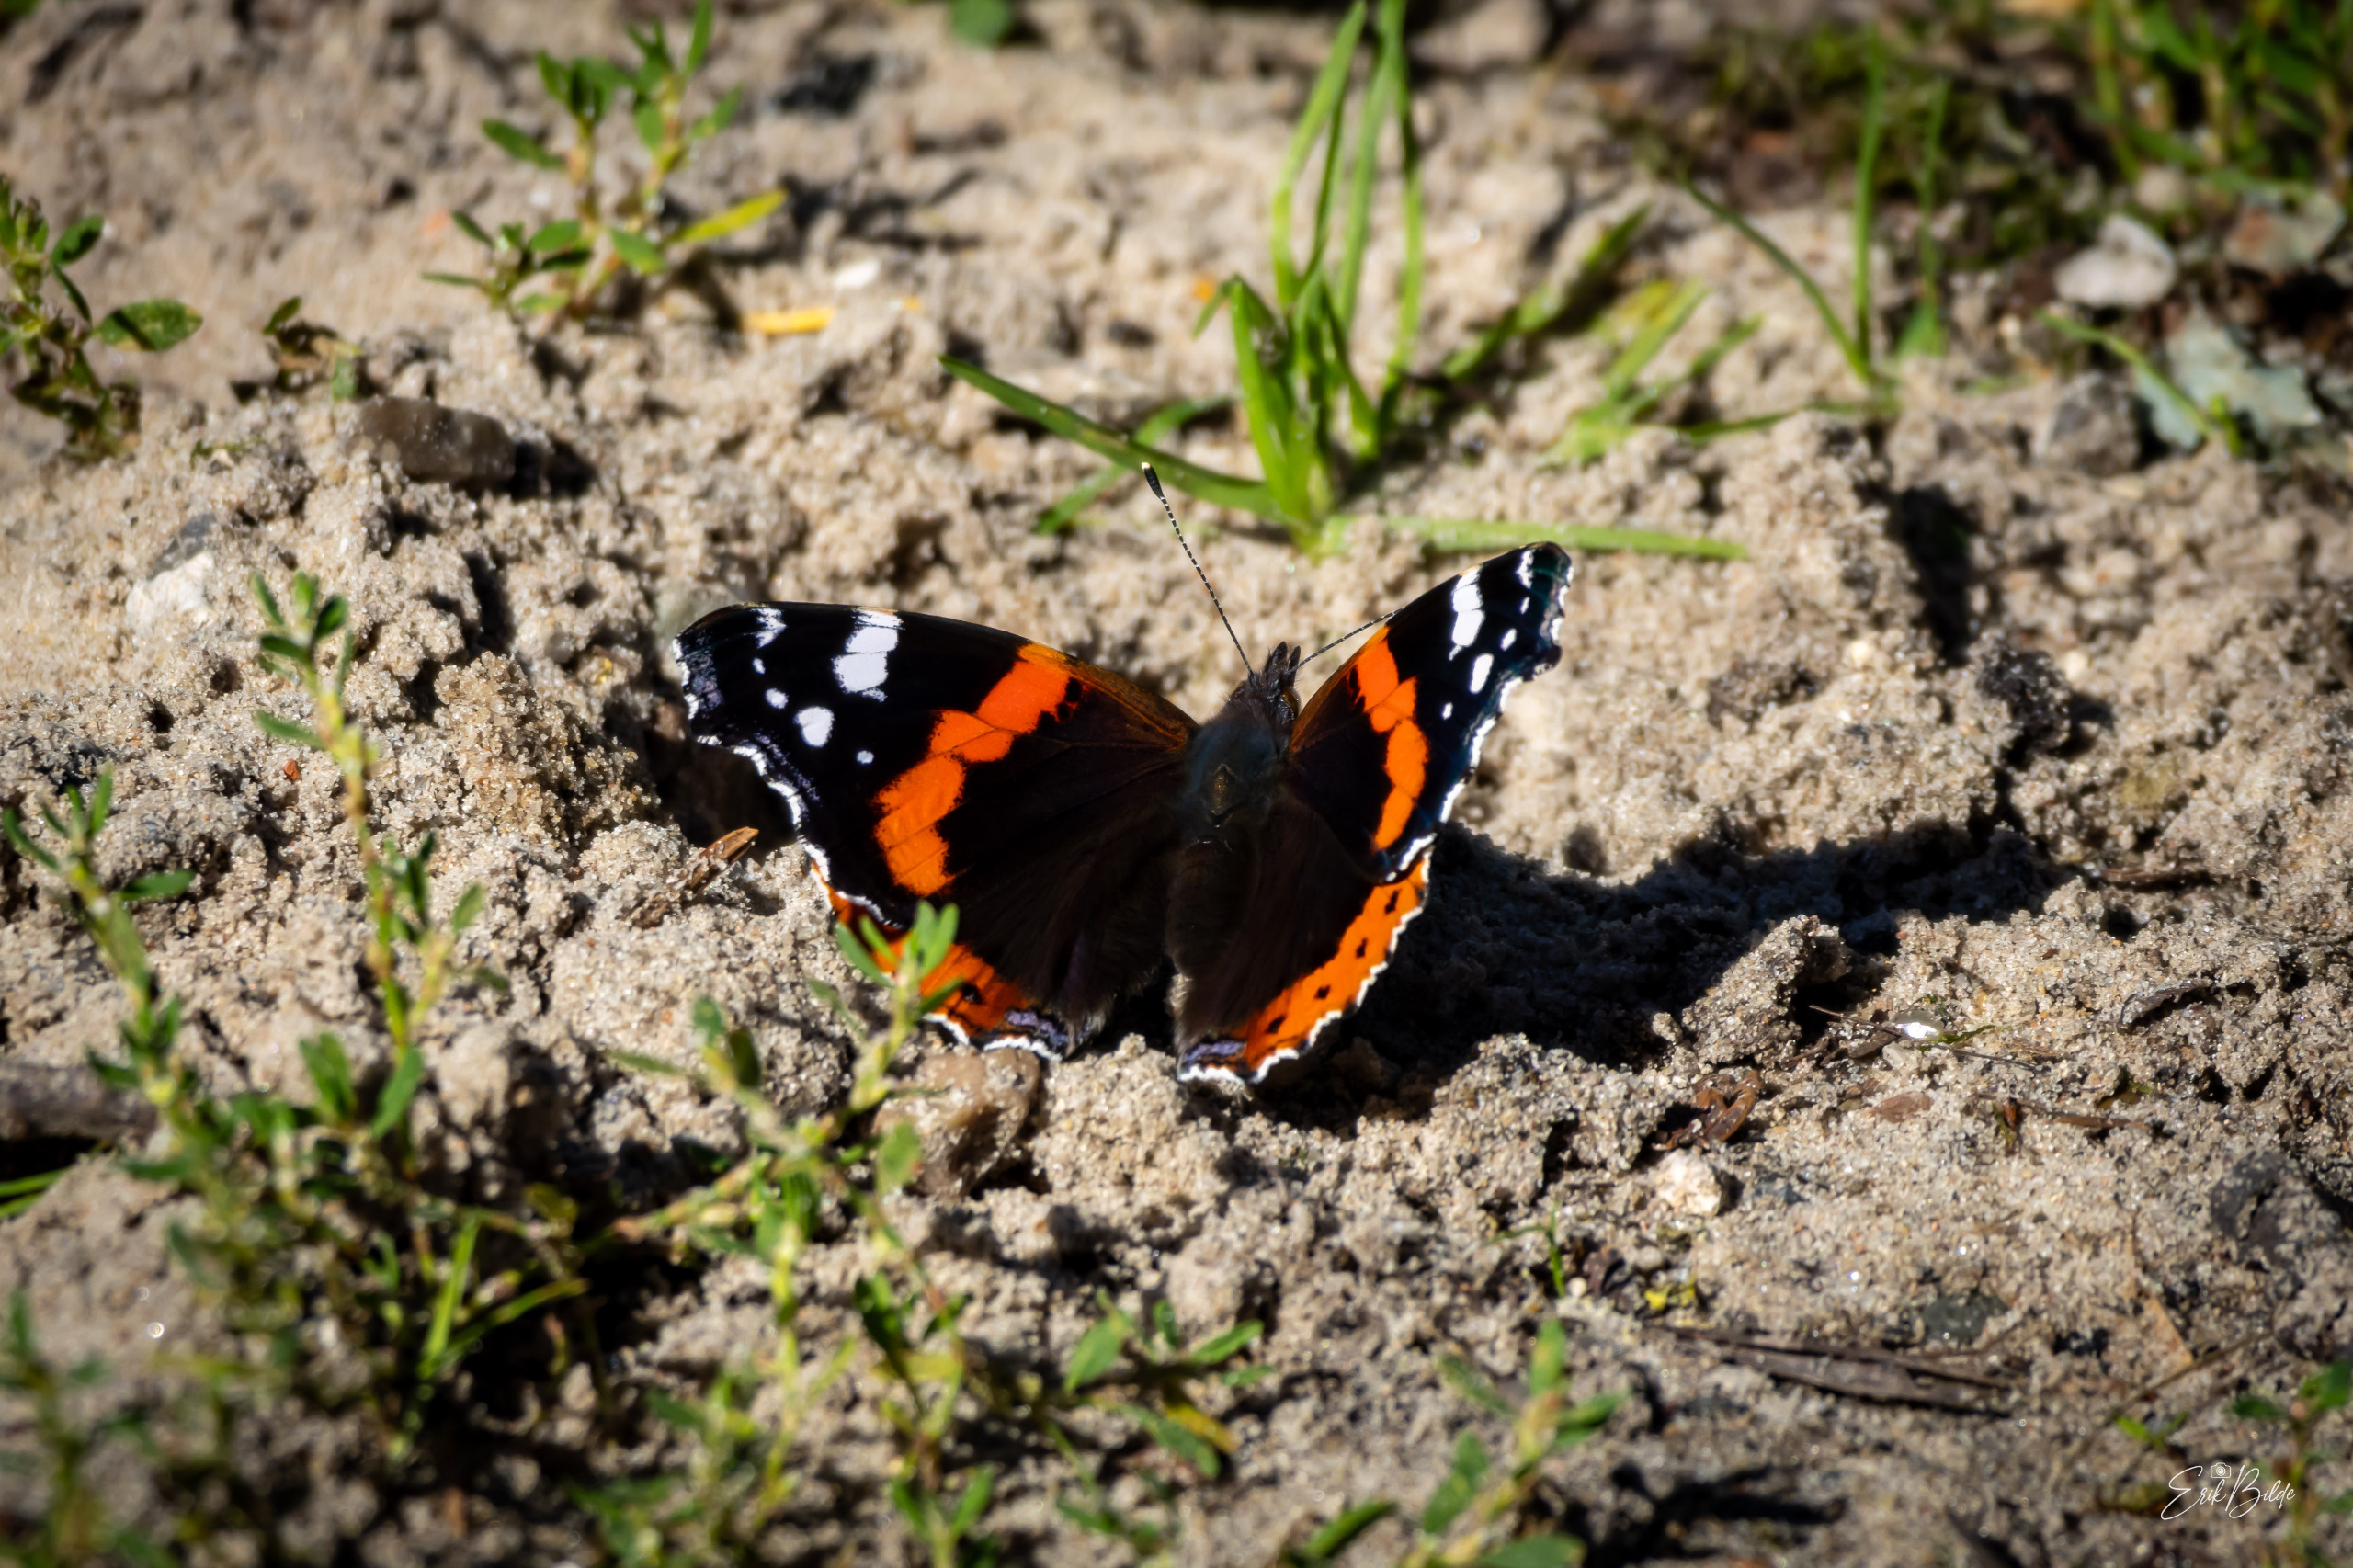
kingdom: Animalia
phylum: Arthropoda
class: Insecta
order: Lepidoptera
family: Nymphalidae
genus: Vanessa
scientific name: Vanessa atalanta
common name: Admiral
